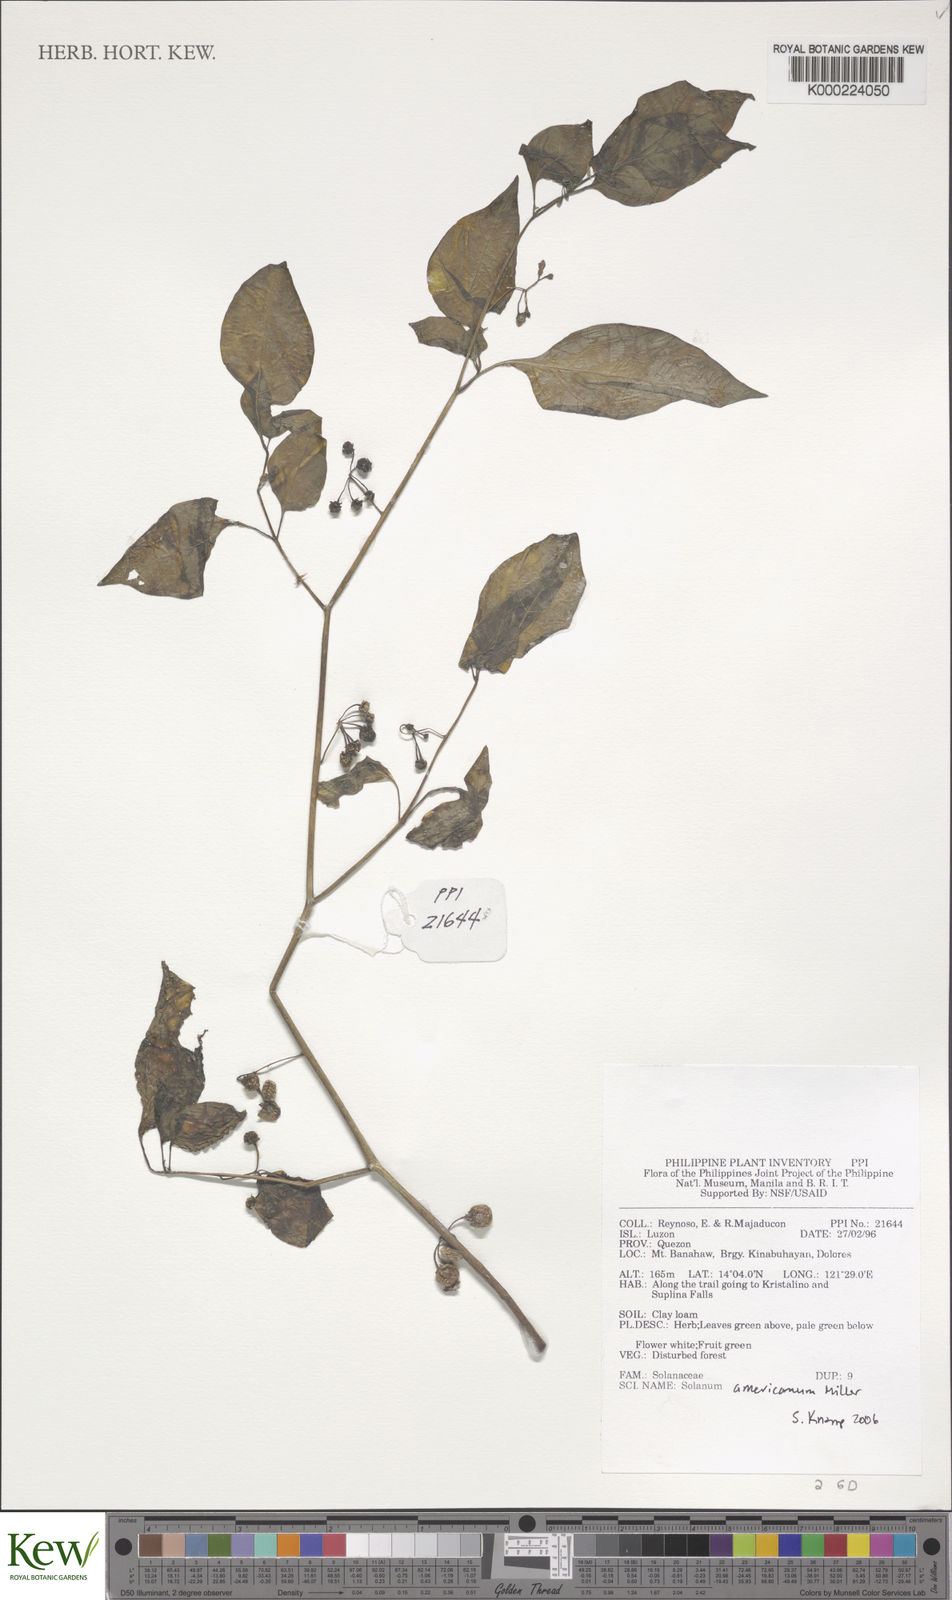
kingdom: Plantae
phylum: Tracheophyta
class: Magnoliopsida
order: Solanales
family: Solanaceae
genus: Solanum
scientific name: Solanum americanum
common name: American black nightshade
